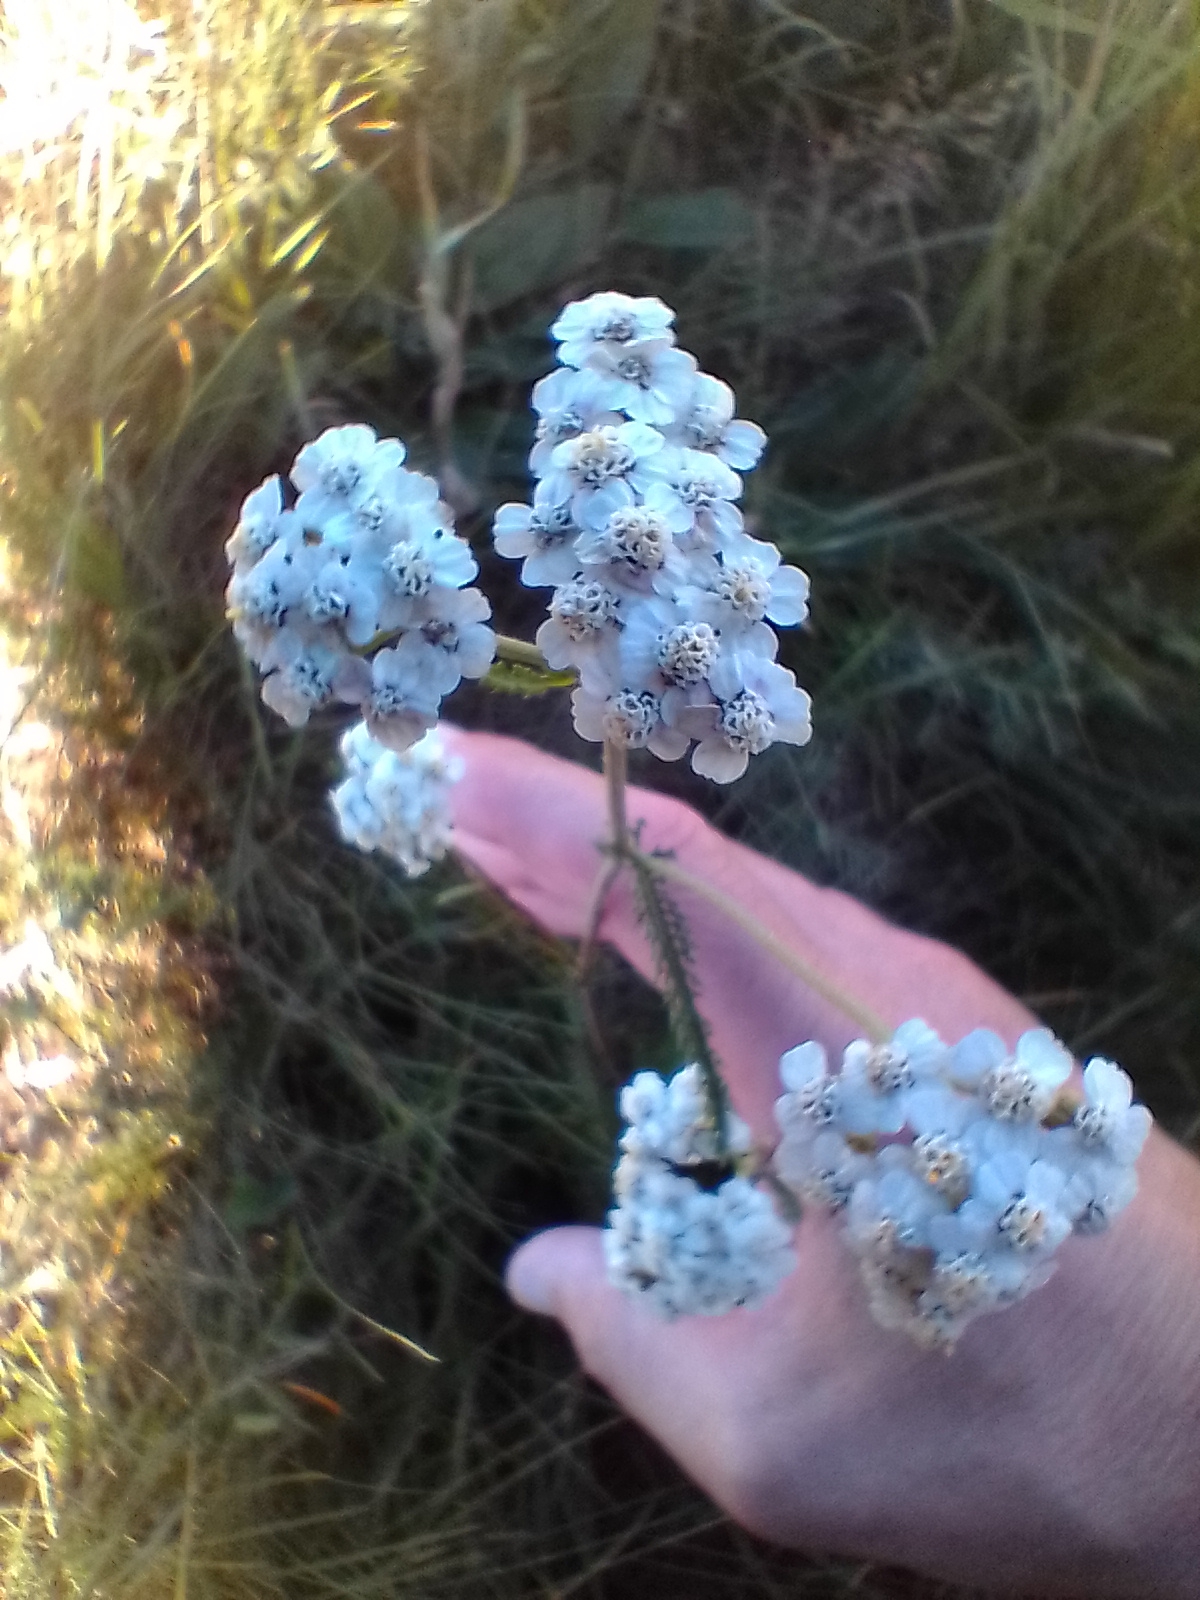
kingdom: Plantae
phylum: Tracheophyta
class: Magnoliopsida
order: Asterales
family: Asteraceae
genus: Achillea
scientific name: Achillea millefolium
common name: Almindelig røllike
